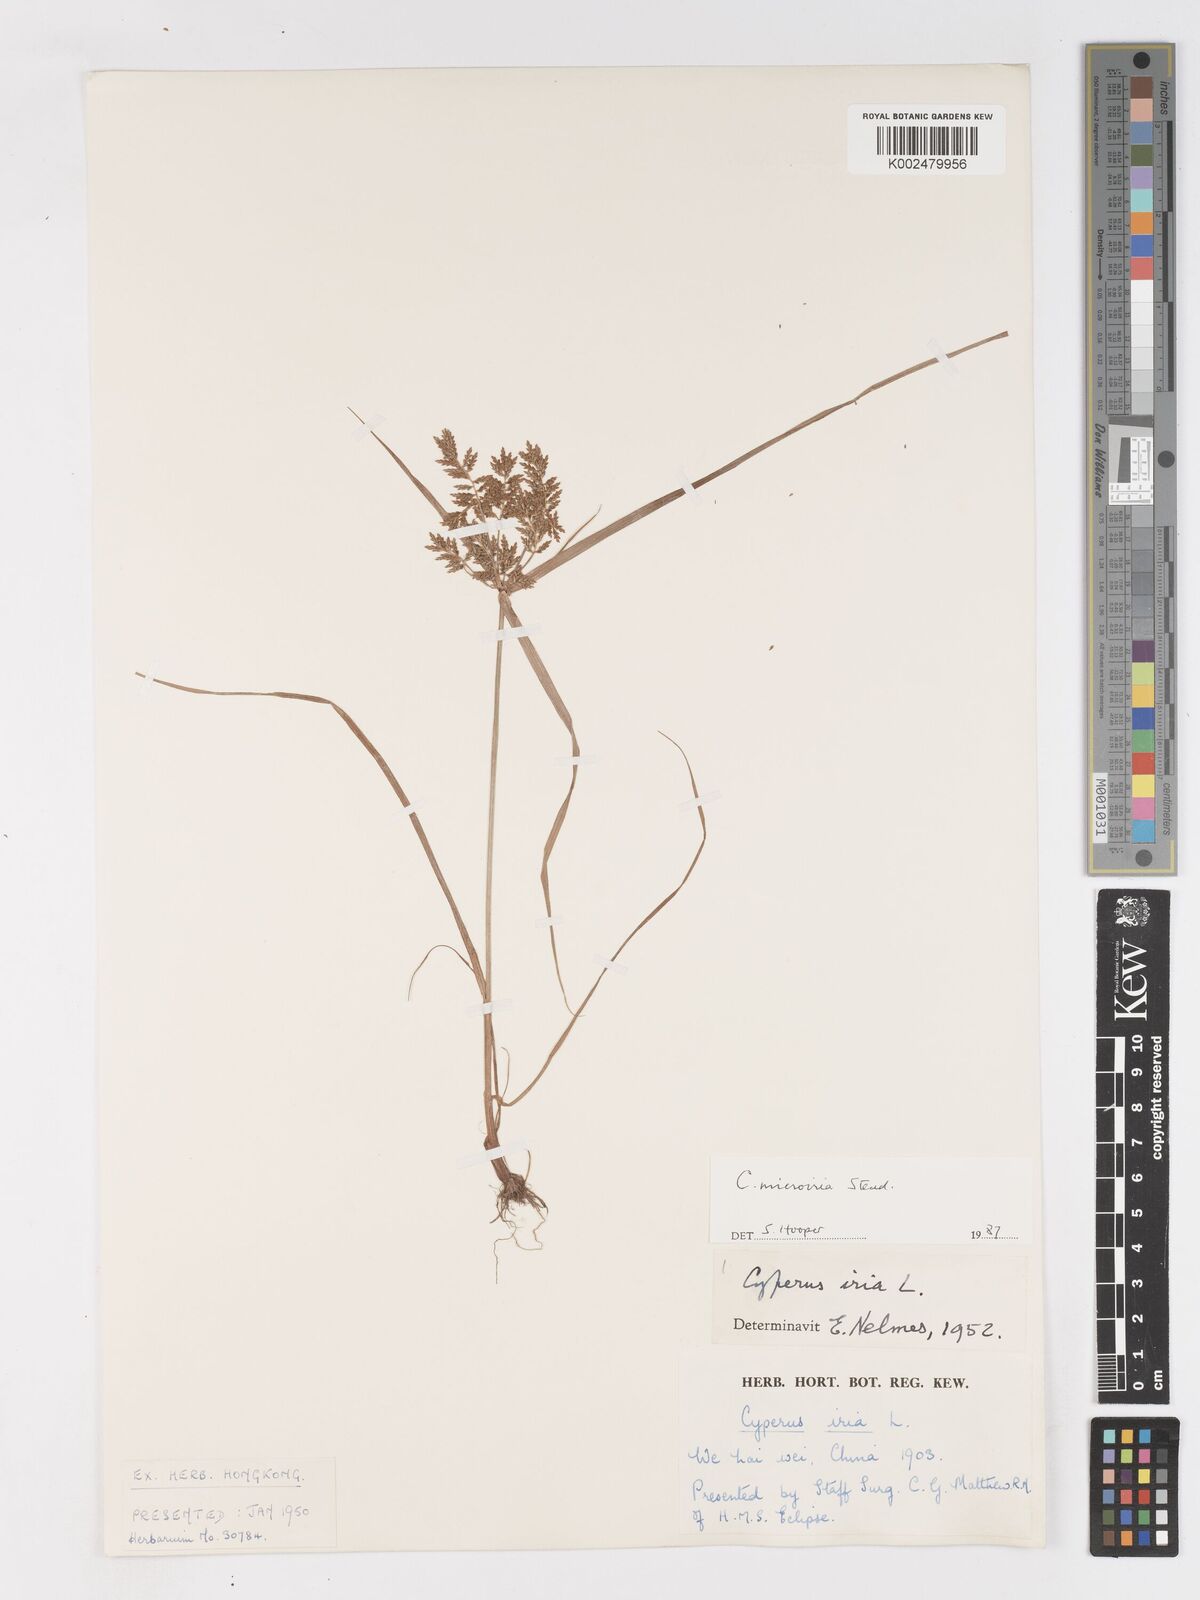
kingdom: Plantae
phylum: Tracheophyta
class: Liliopsida
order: Poales
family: Cyperaceae
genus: Cyperus
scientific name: Cyperus microiria
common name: Asian flatsedge
